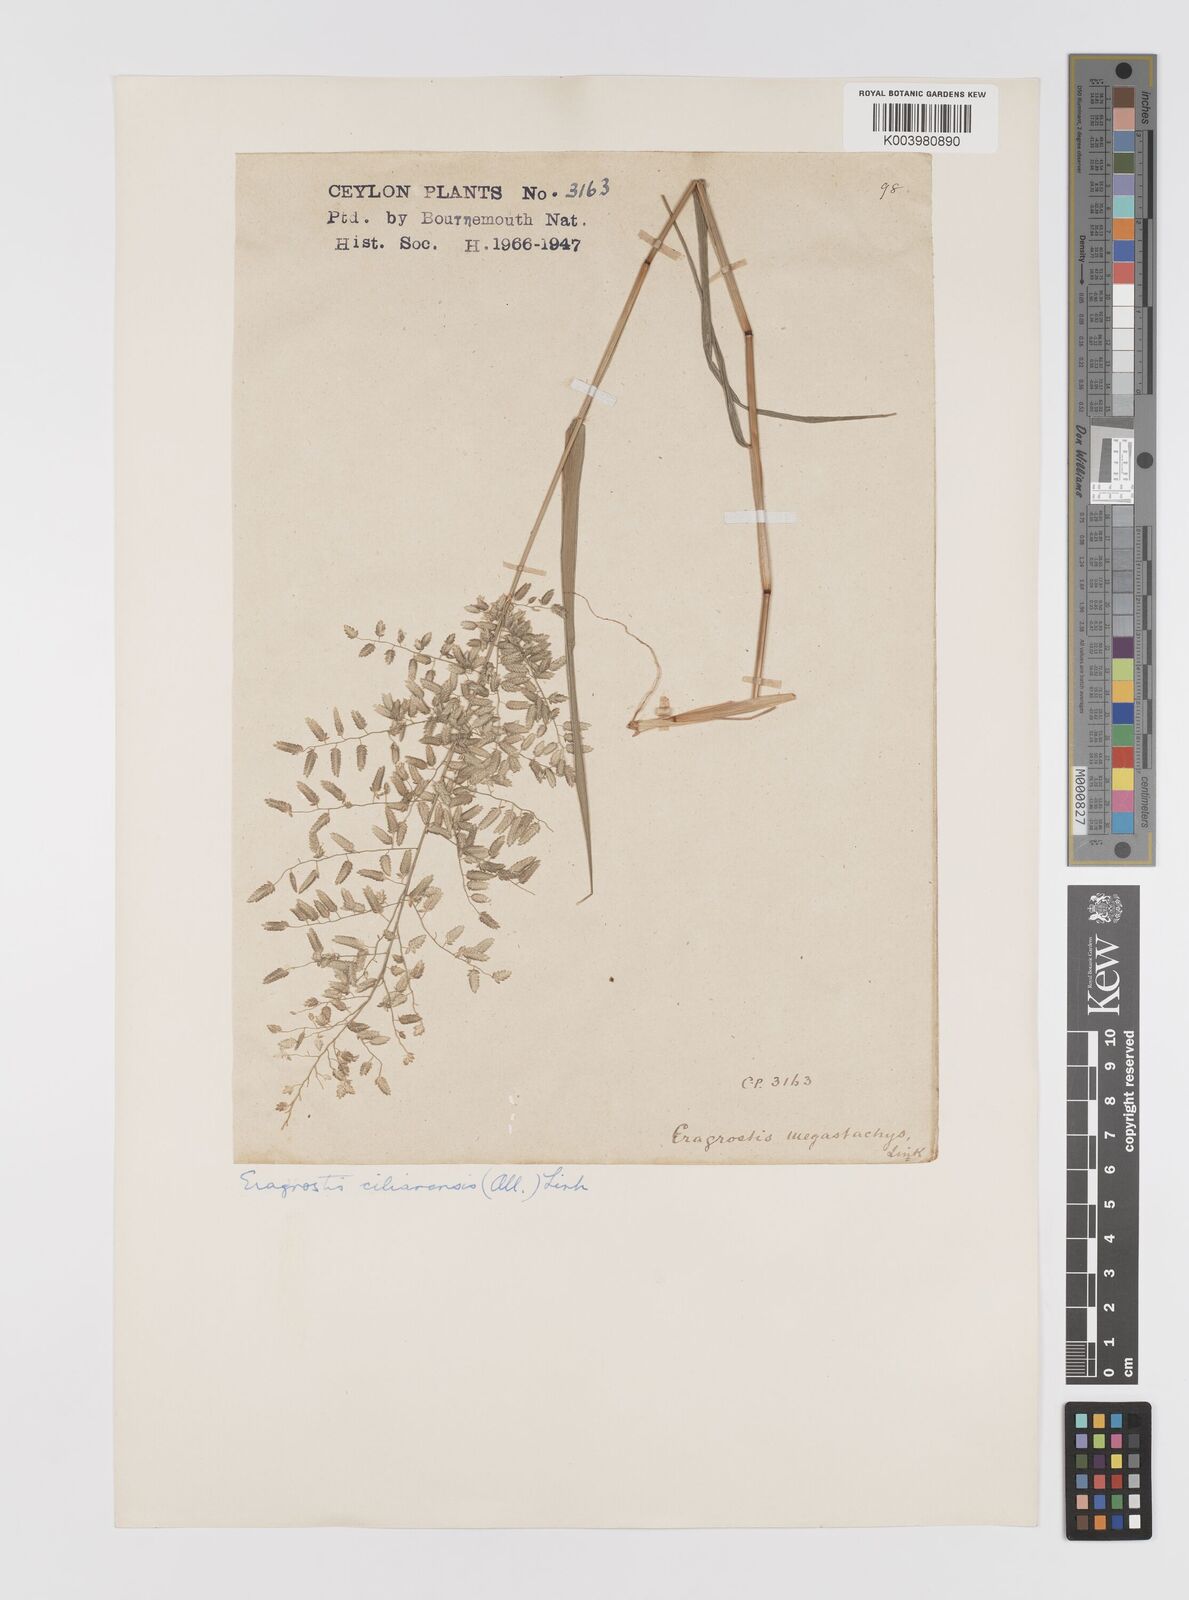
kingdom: Plantae
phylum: Tracheophyta
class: Liliopsida
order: Poales
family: Poaceae
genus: Eragrostis
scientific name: Eragrostis cilianensis
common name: Stinkgrass
